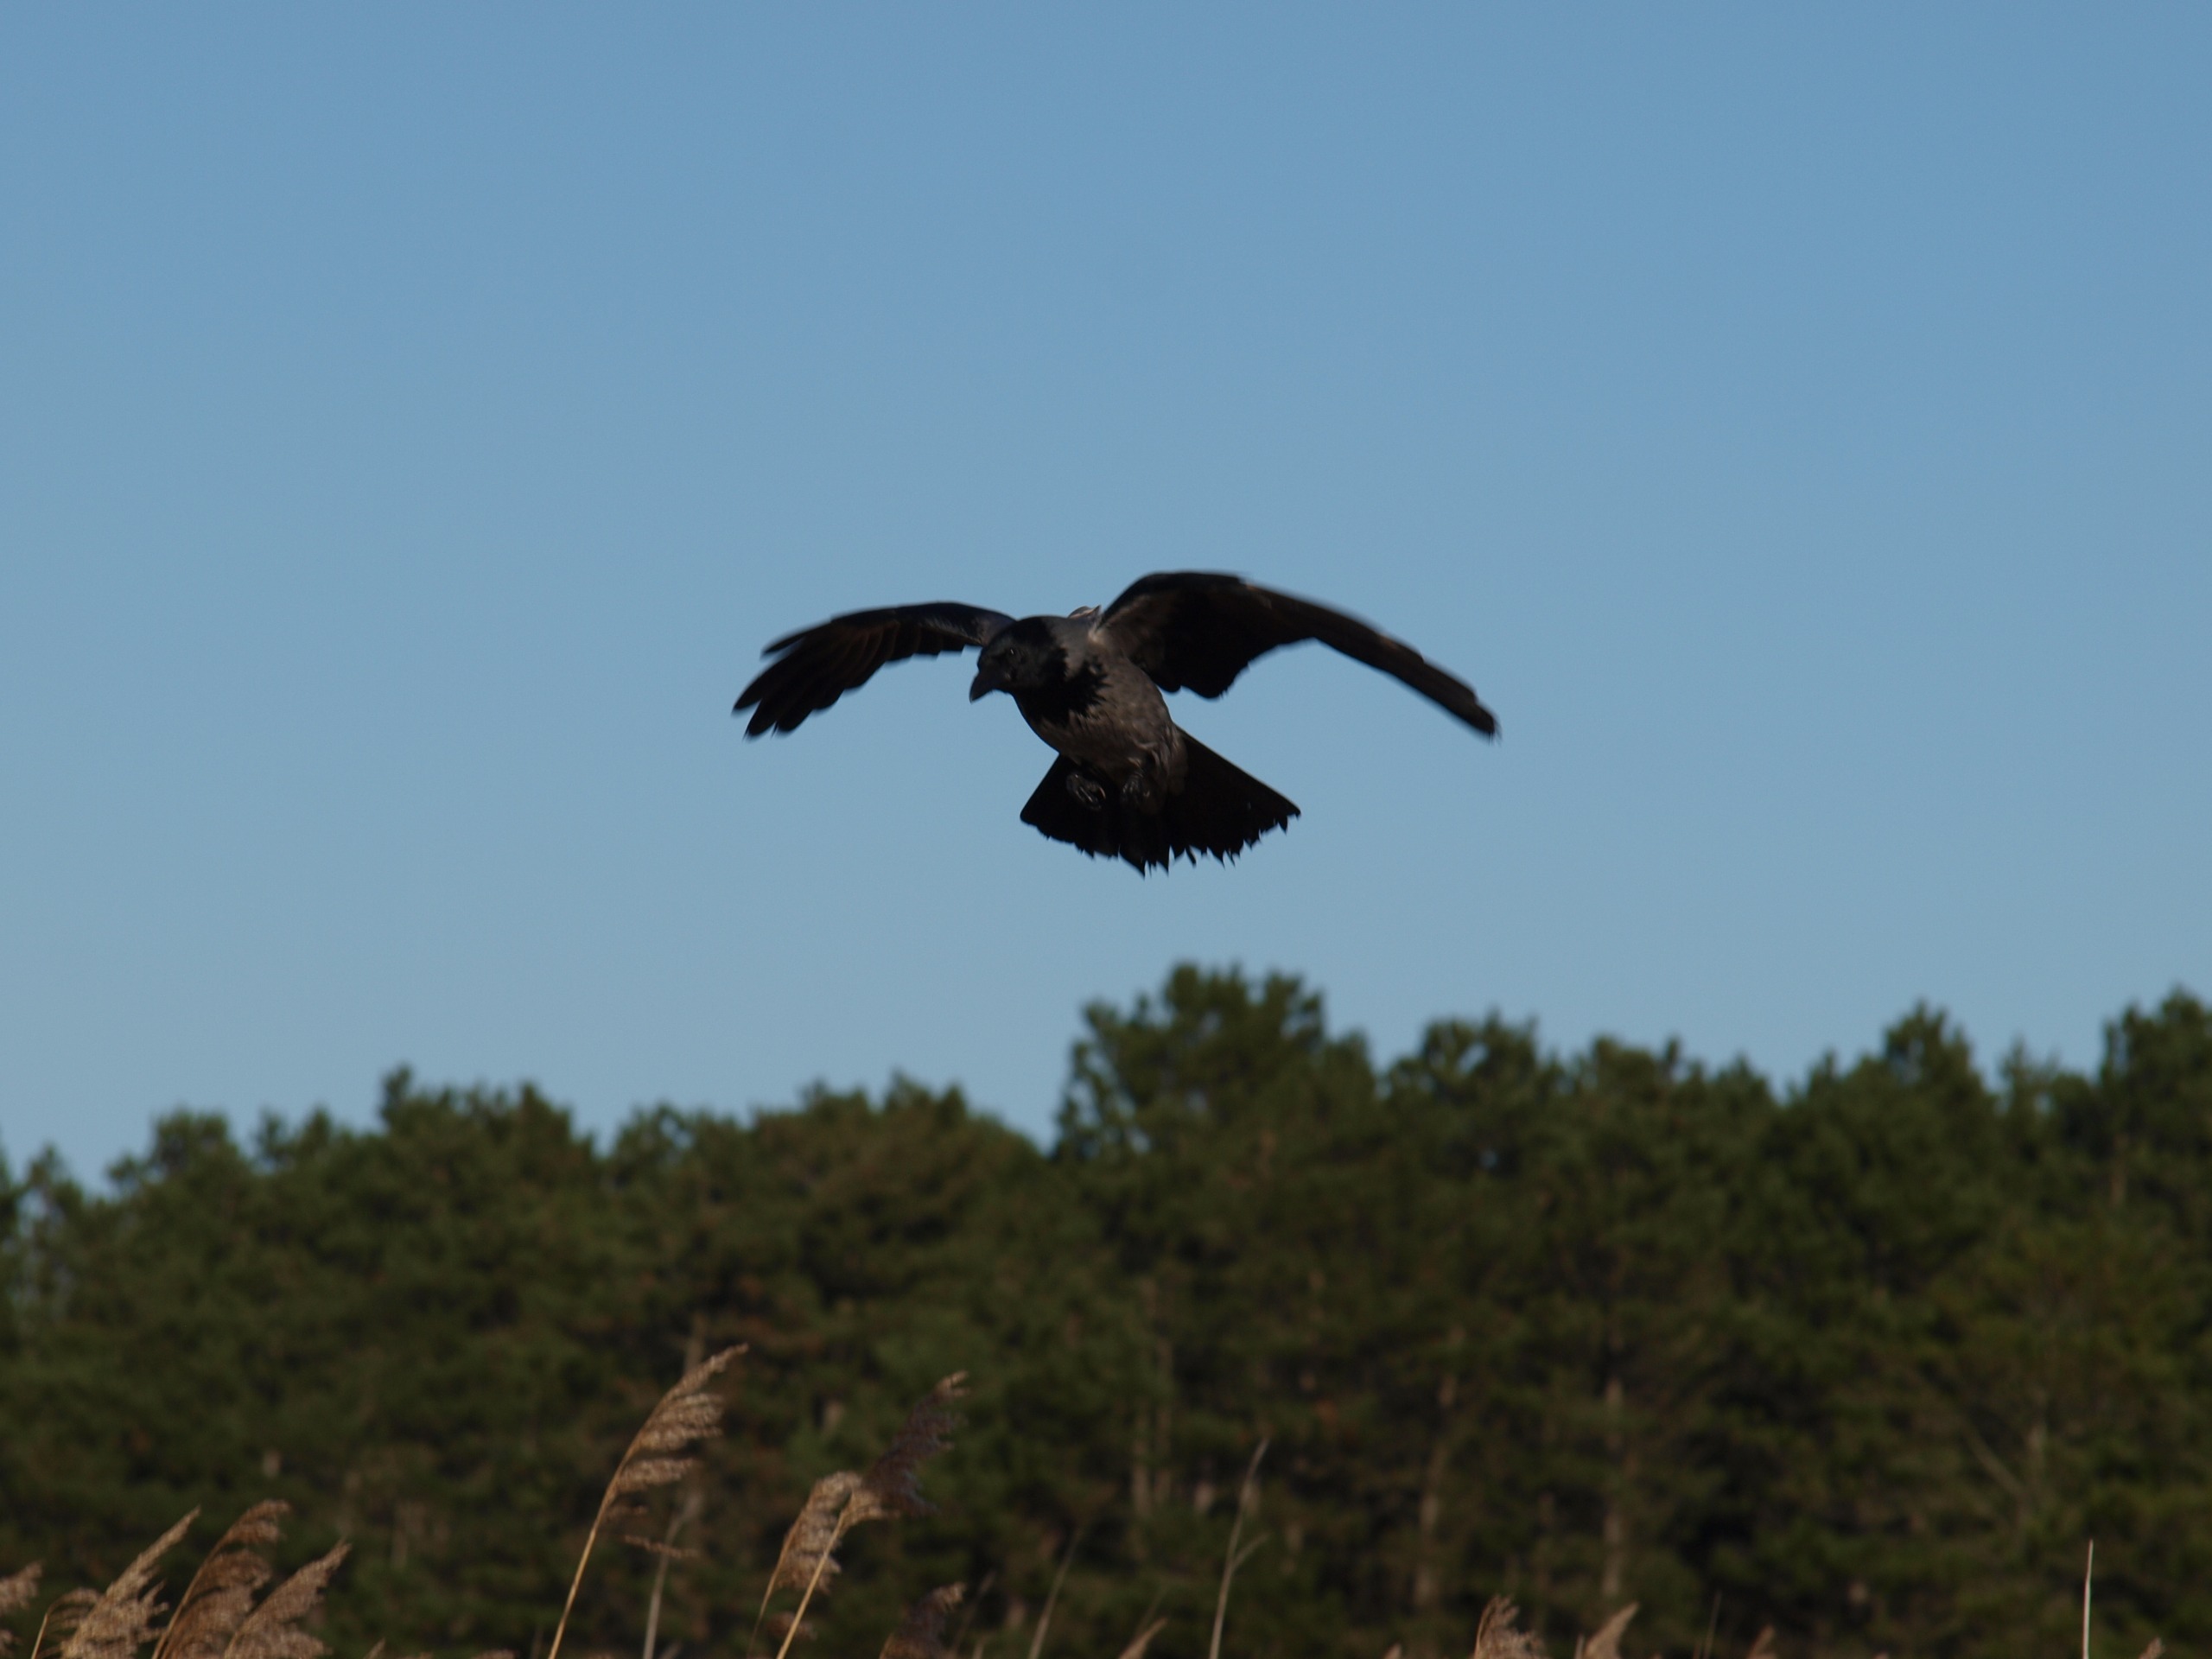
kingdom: Animalia
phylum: Chordata
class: Aves
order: Passeriformes
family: Corvidae
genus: Corvus
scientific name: Corvus cornix
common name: Gråkrage
